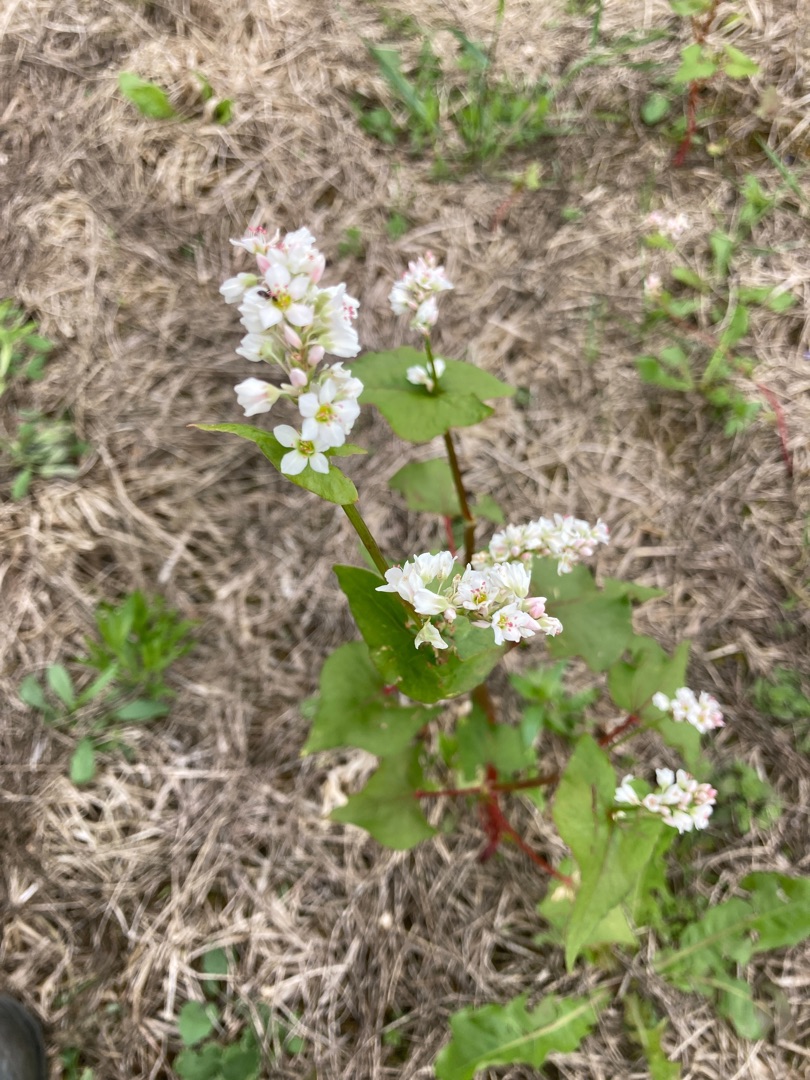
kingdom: Plantae
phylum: Tracheophyta
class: Magnoliopsida
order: Caryophyllales
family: Polygonaceae
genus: Fagopyrum
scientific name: Fagopyrum esculentum
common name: Almindelig boghvede
